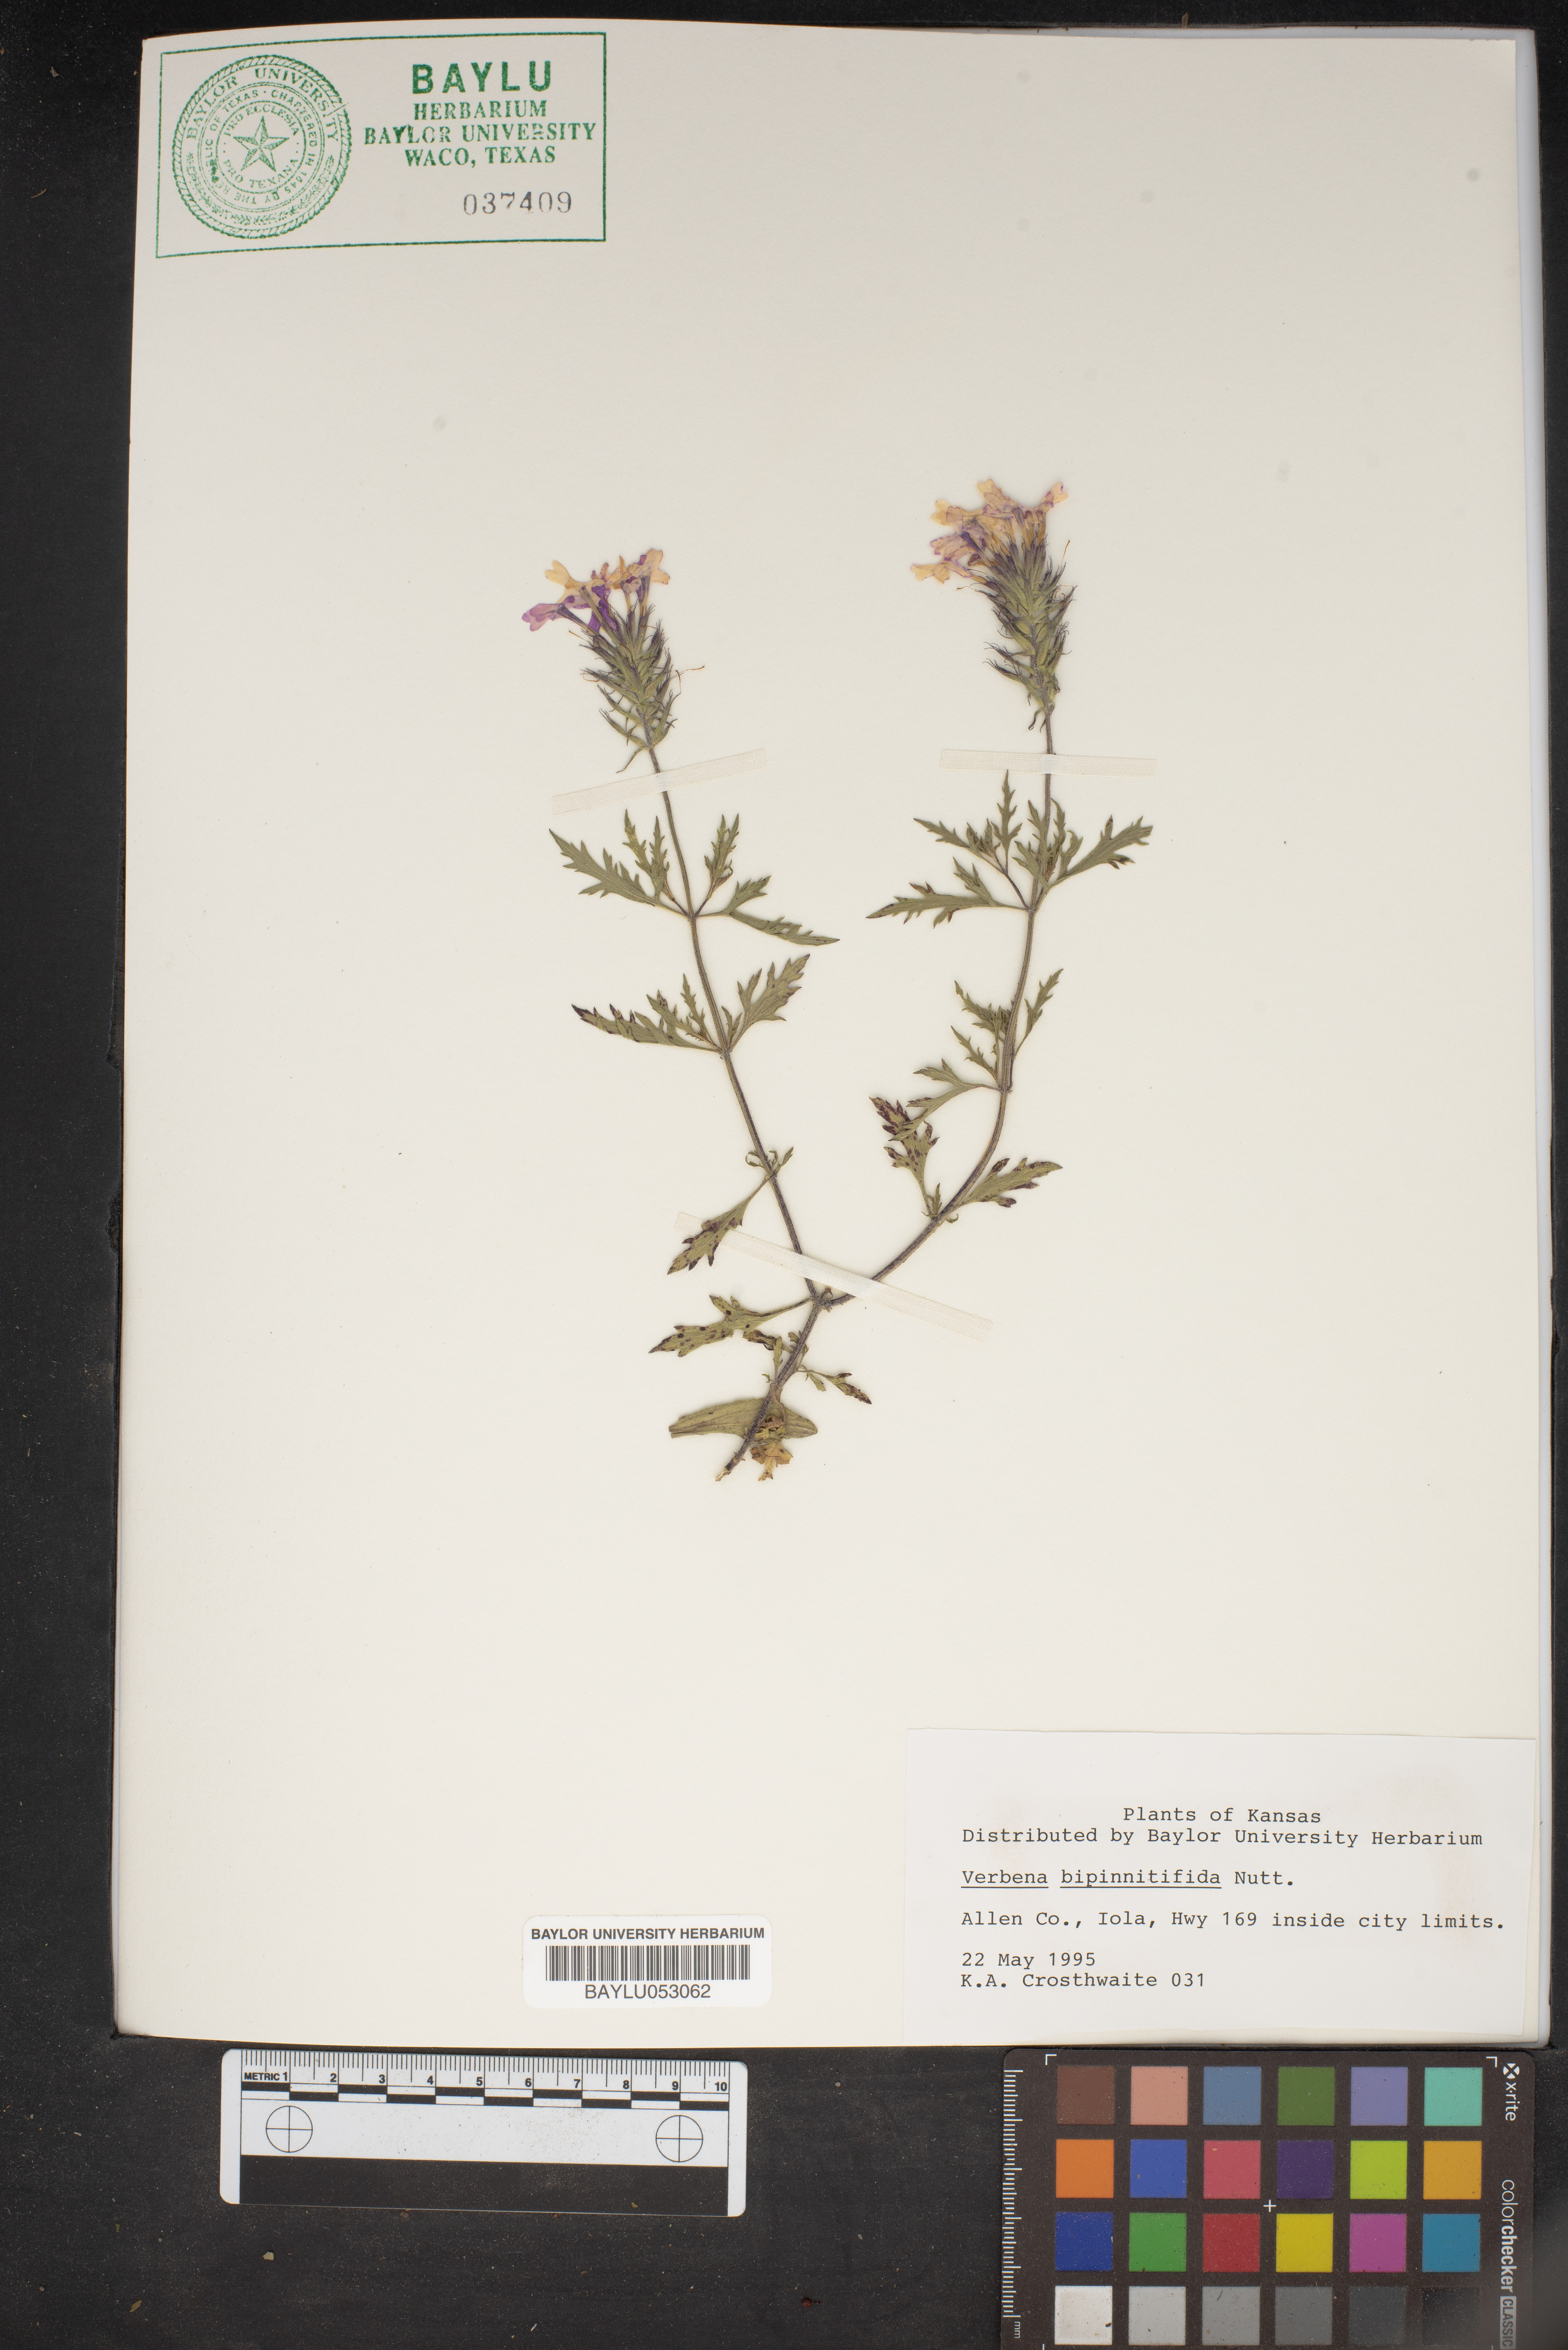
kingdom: Plantae
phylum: Tracheophyta
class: Magnoliopsida
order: Lamiales
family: Verbenaceae
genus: Verbena
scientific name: Verbena bipinnatifida
